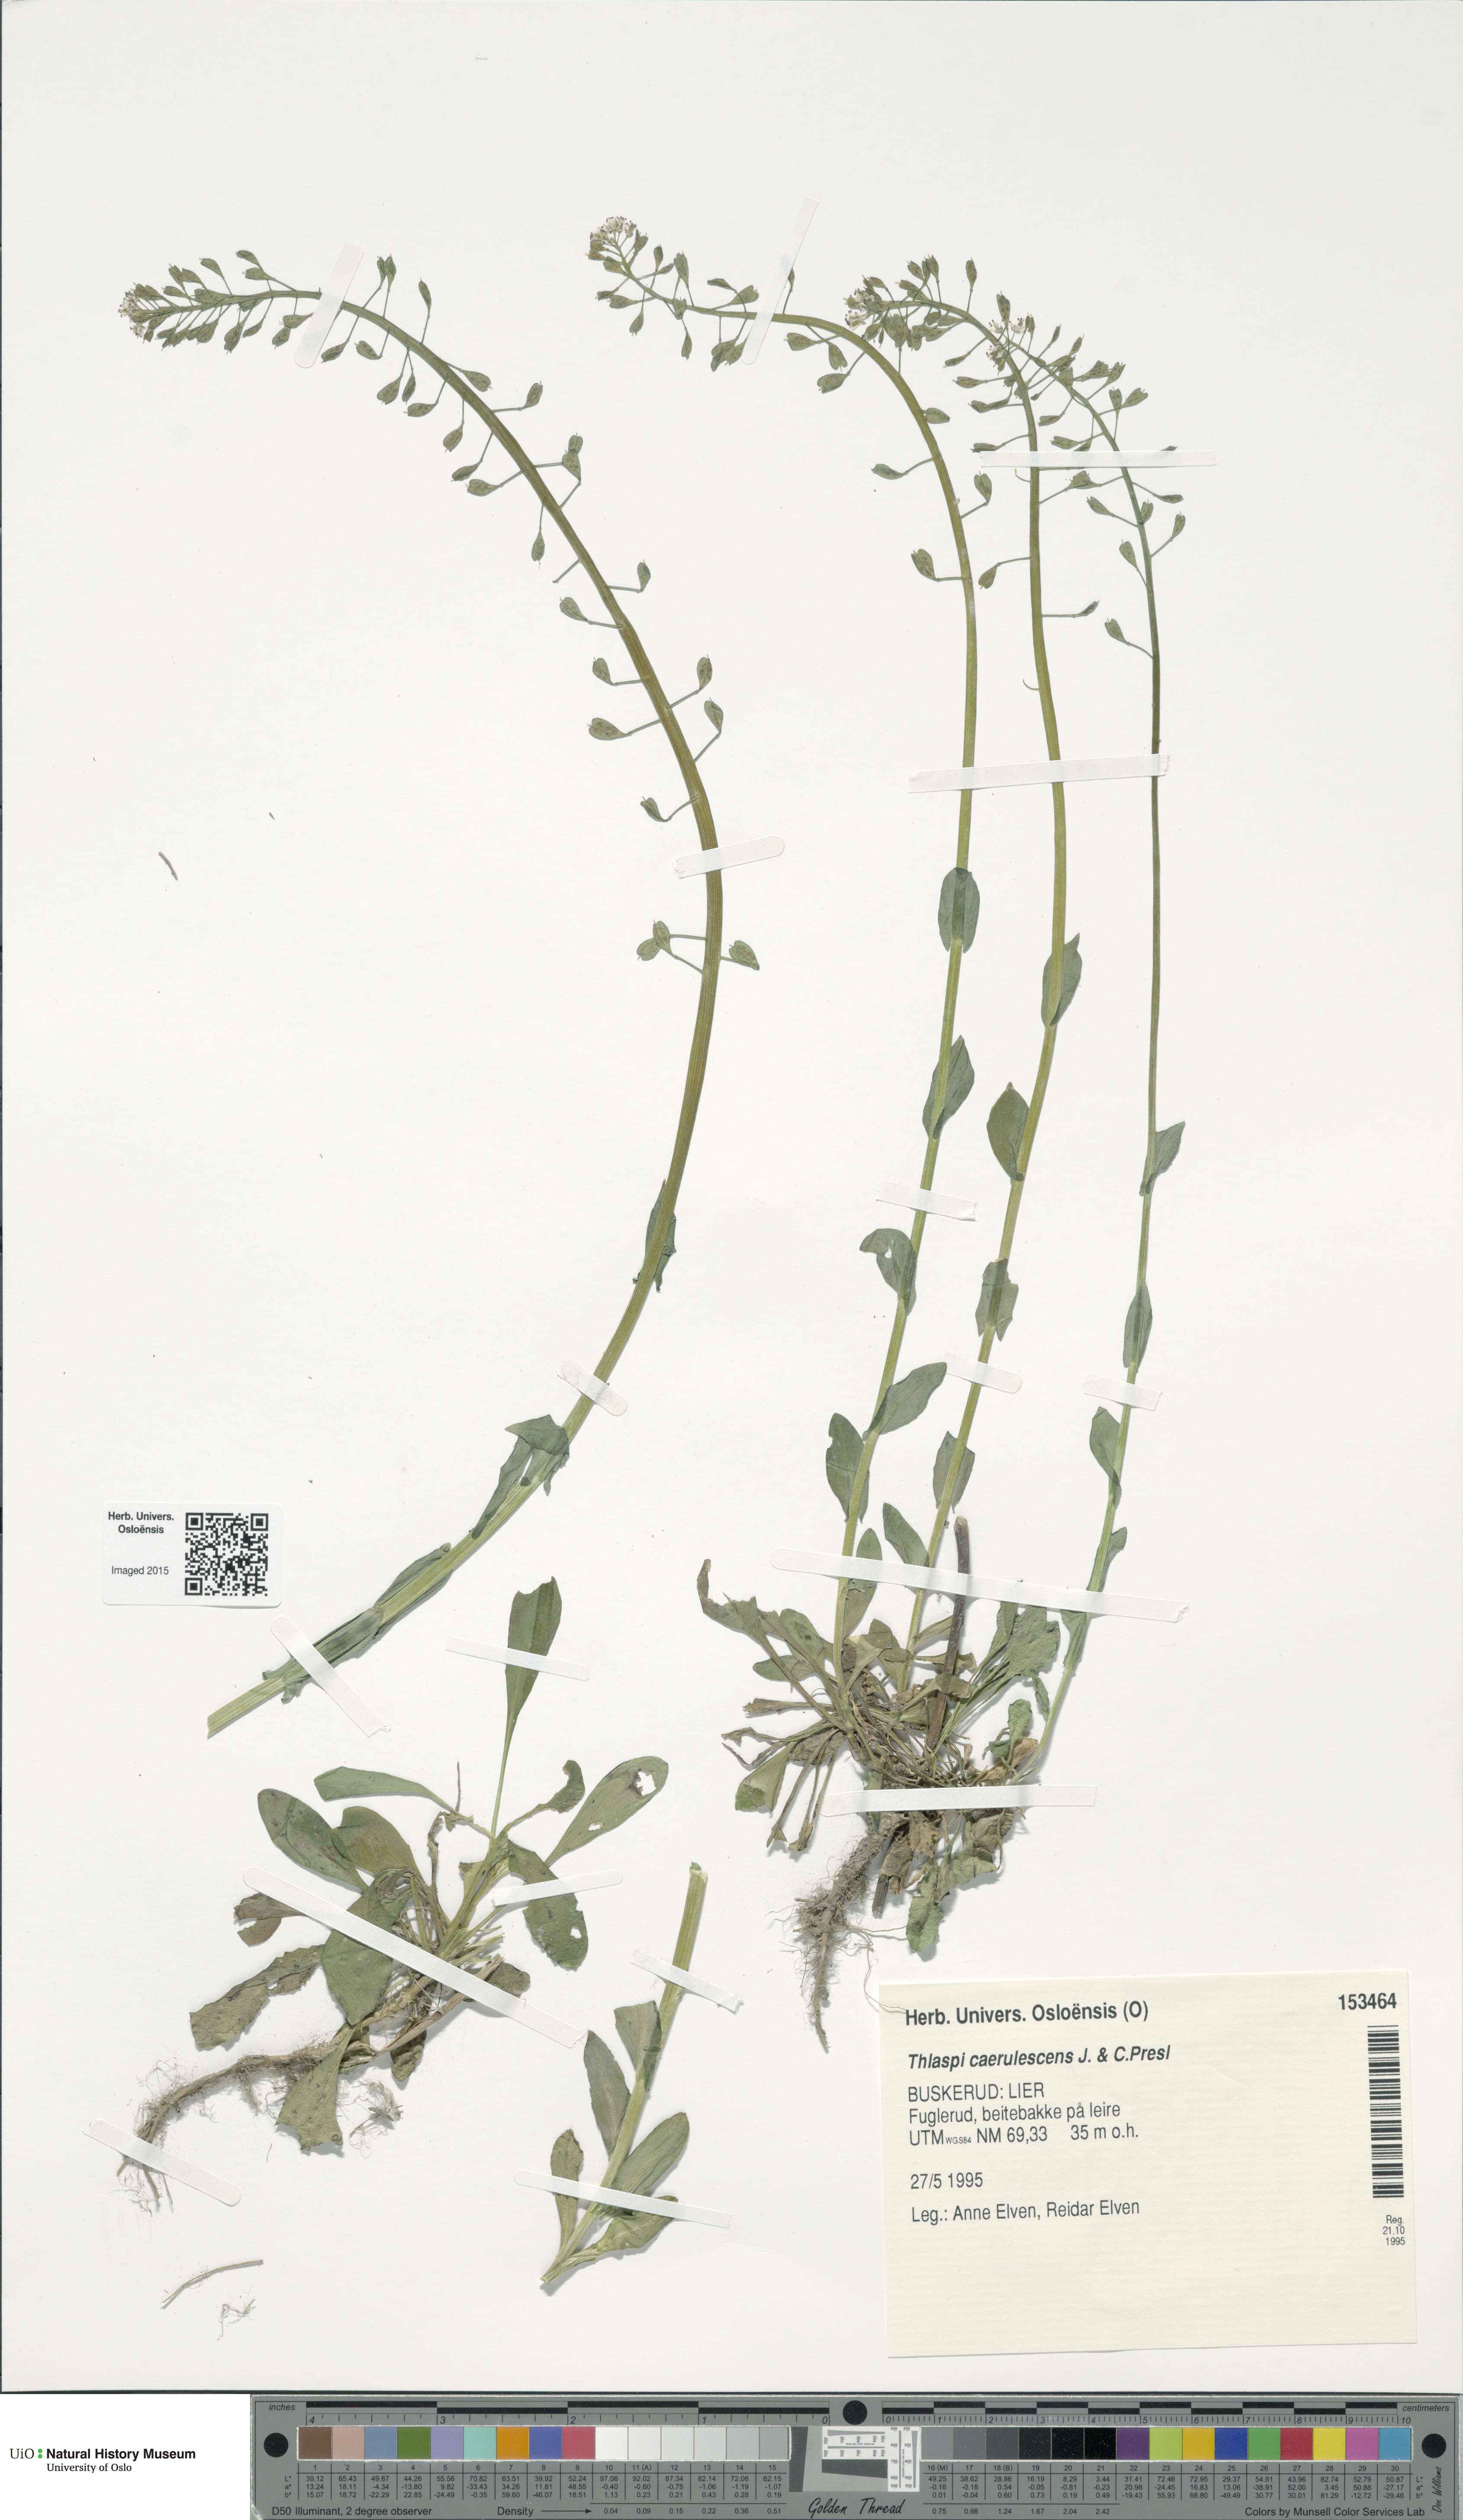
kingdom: Plantae
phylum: Tracheophyta
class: Magnoliopsida
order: Brassicales
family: Brassicaceae
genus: Noccaea
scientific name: Noccaea caerulescens
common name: Alpine pennycress
